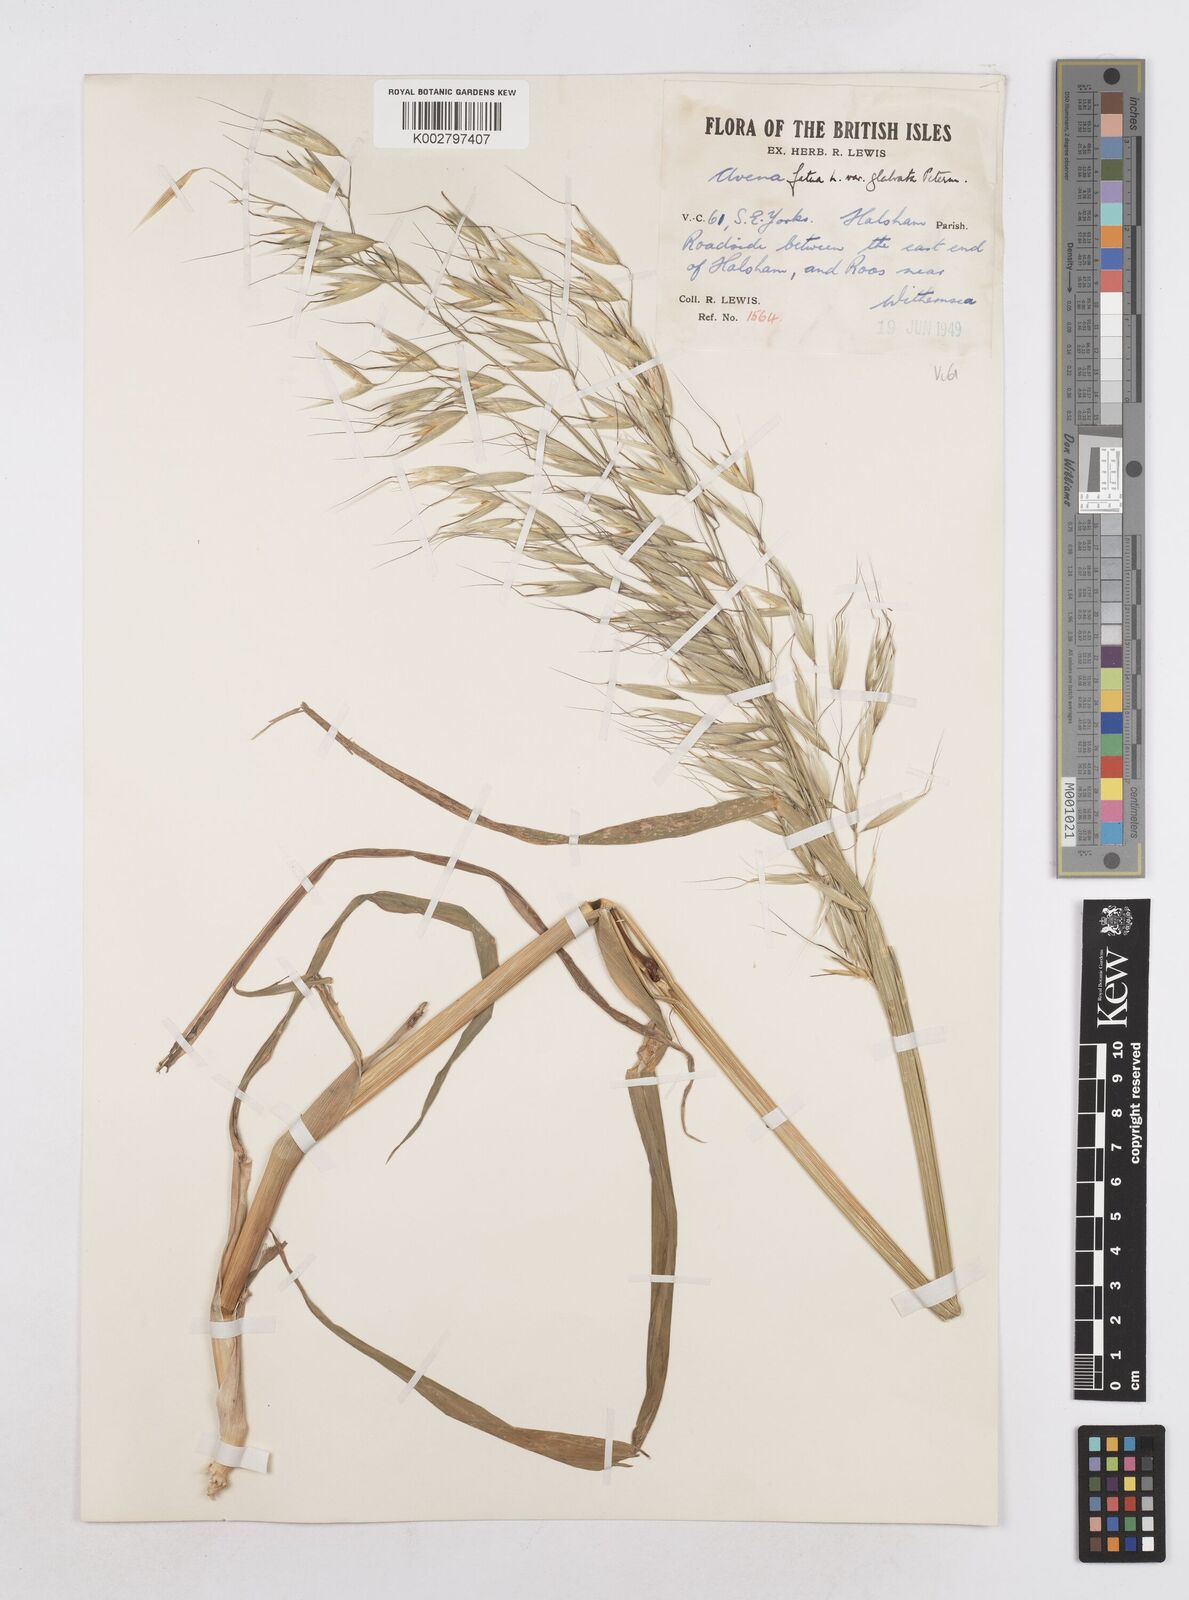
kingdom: Plantae
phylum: Tracheophyta
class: Liliopsida
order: Poales
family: Poaceae
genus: Avena
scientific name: Avena fatua
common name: Wild oat
